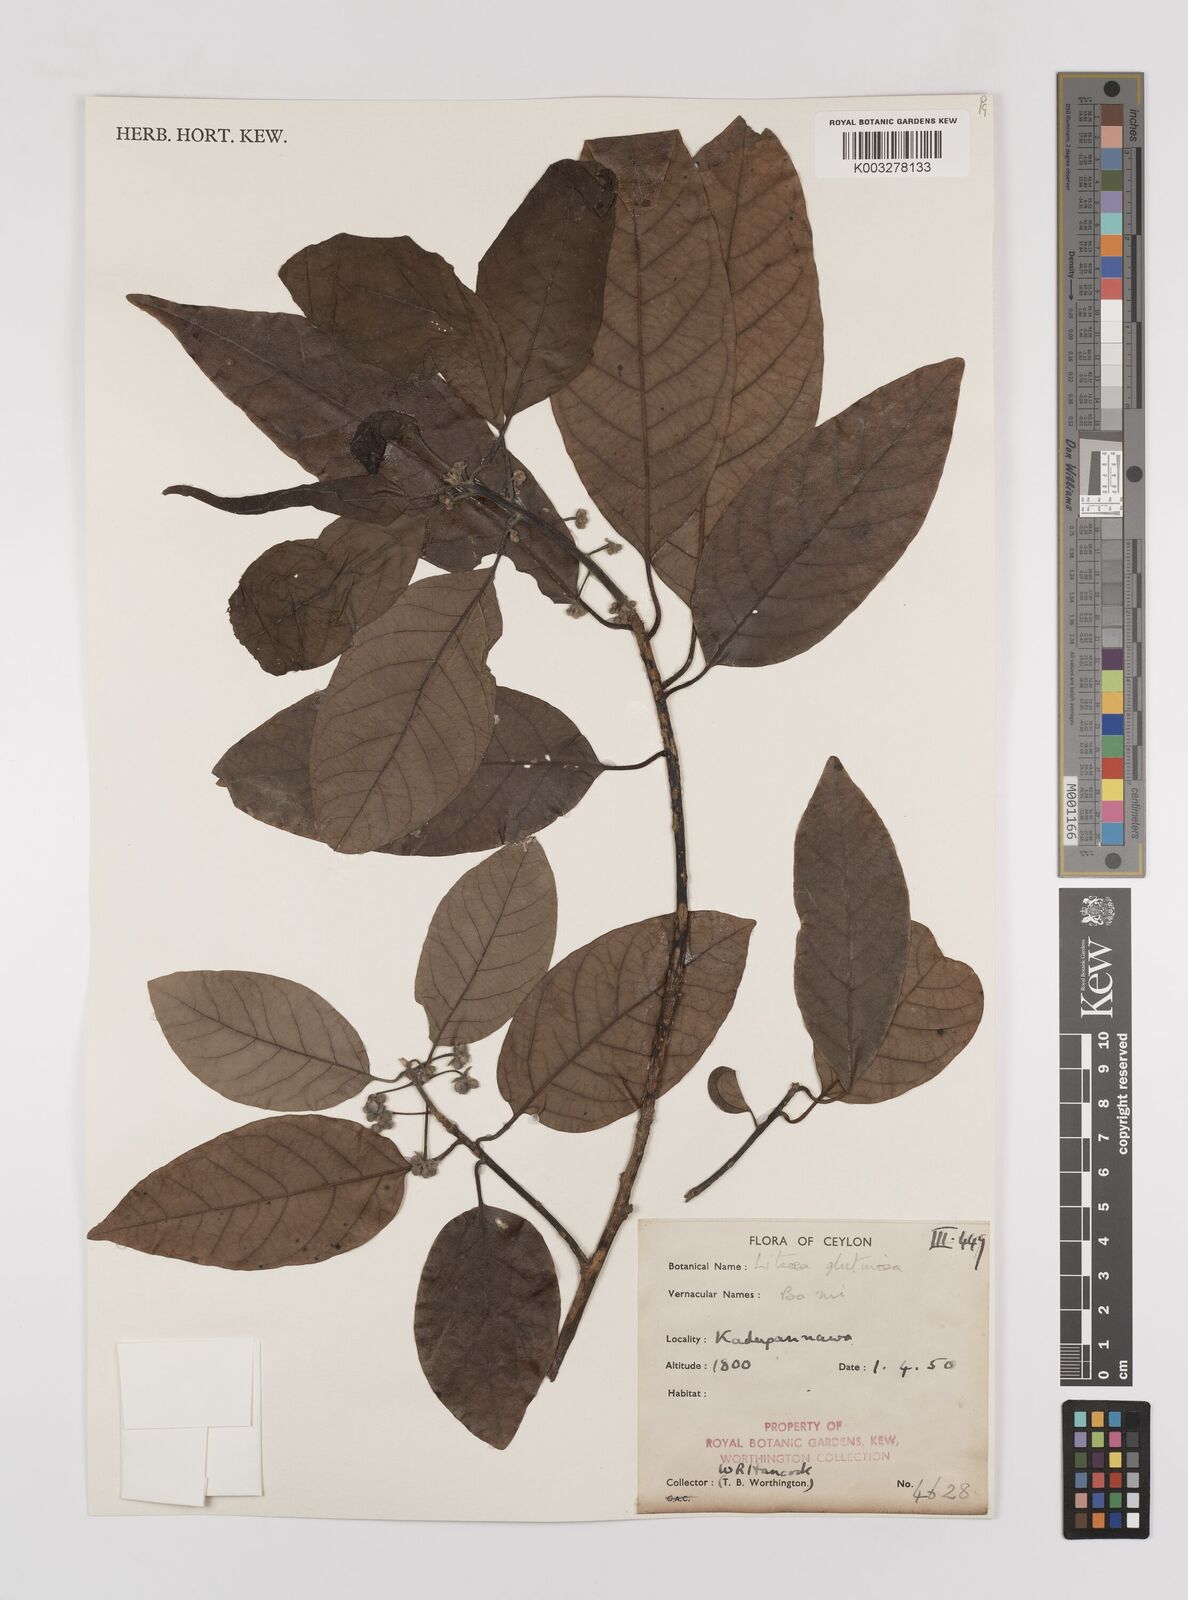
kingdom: Plantae
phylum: Tracheophyta
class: Magnoliopsida
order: Laurales
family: Lauraceae
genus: Litsea
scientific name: Litsea
